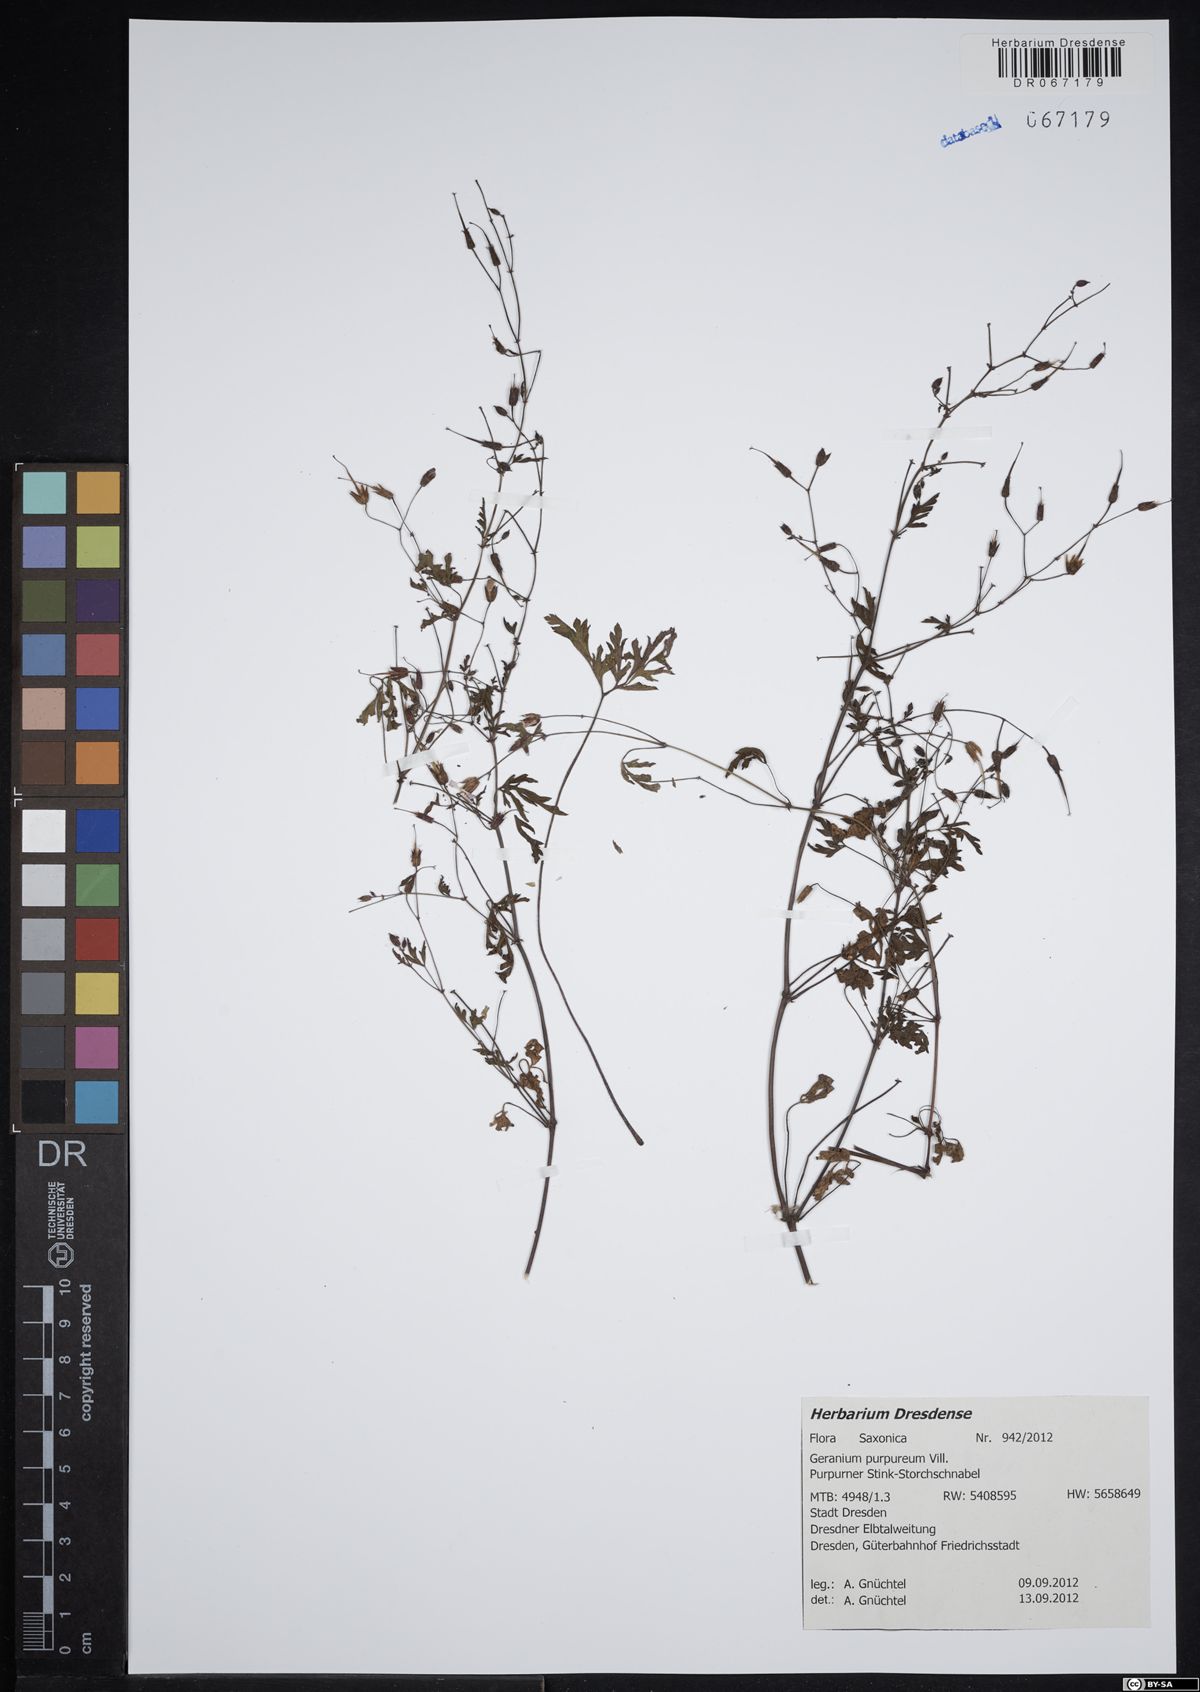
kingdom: Plantae
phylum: Tracheophyta
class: Magnoliopsida
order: Geraniales
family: Geraniaceae
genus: Geranium
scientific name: Geranium purpureum
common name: Little-robin
